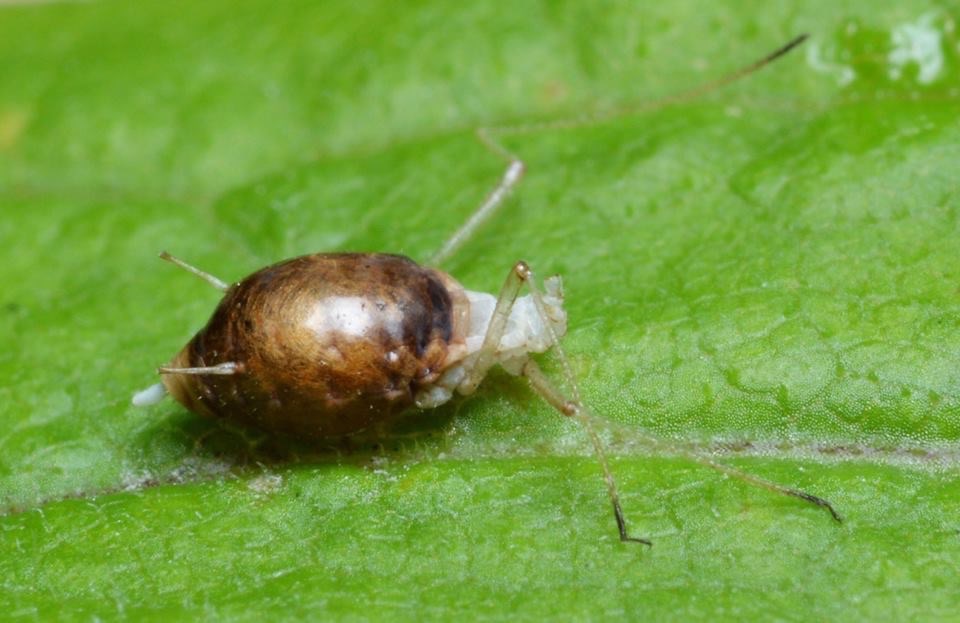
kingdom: Animalia
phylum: Arthropoda
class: Insecta
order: Hymenoptera
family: Megaspilidae
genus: Dendrocerus
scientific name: Dendrocerus
